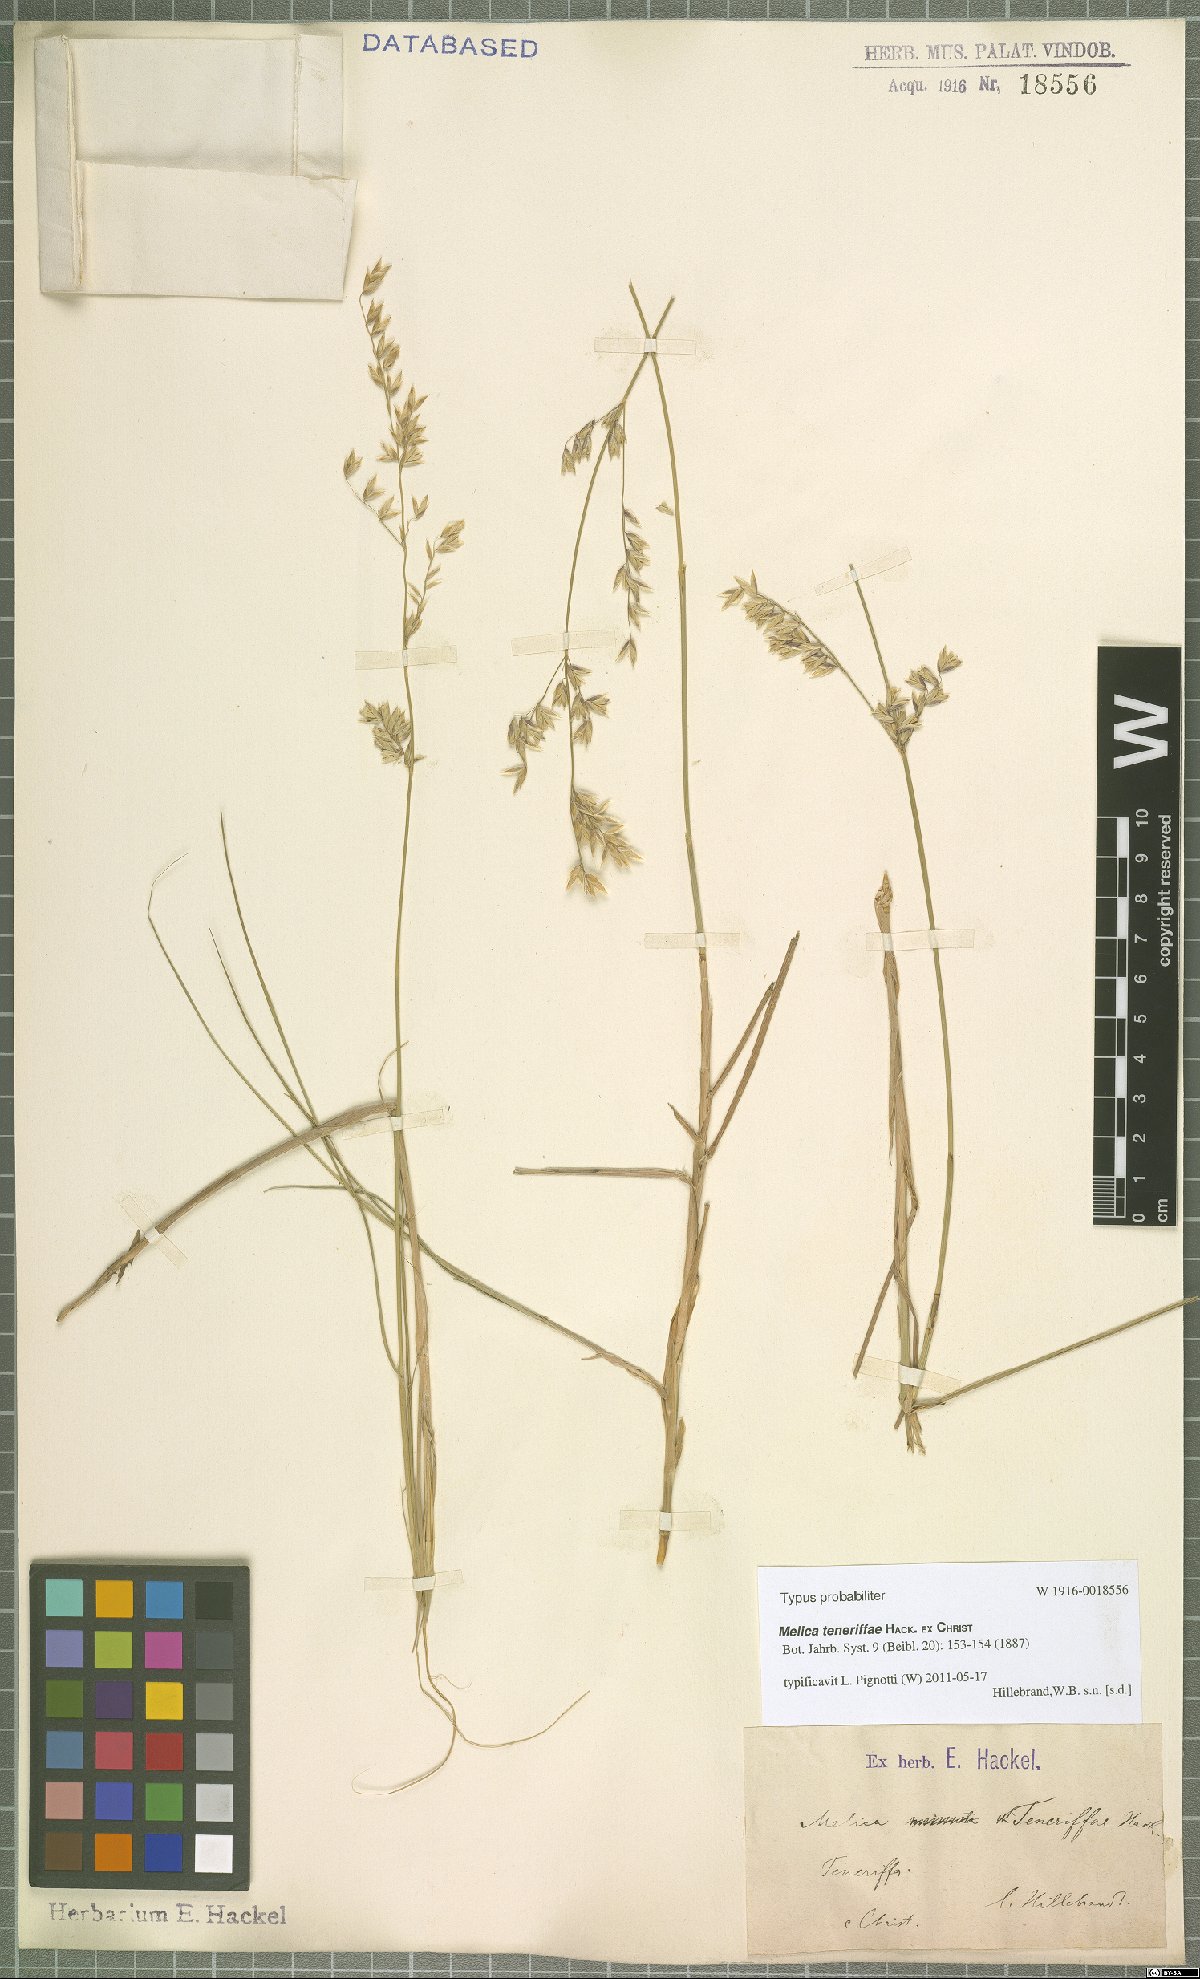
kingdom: Plantae
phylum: Tracheophyta
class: Liliopsida
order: Poales
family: Poaceae
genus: Melica
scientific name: Melica teneriffae
